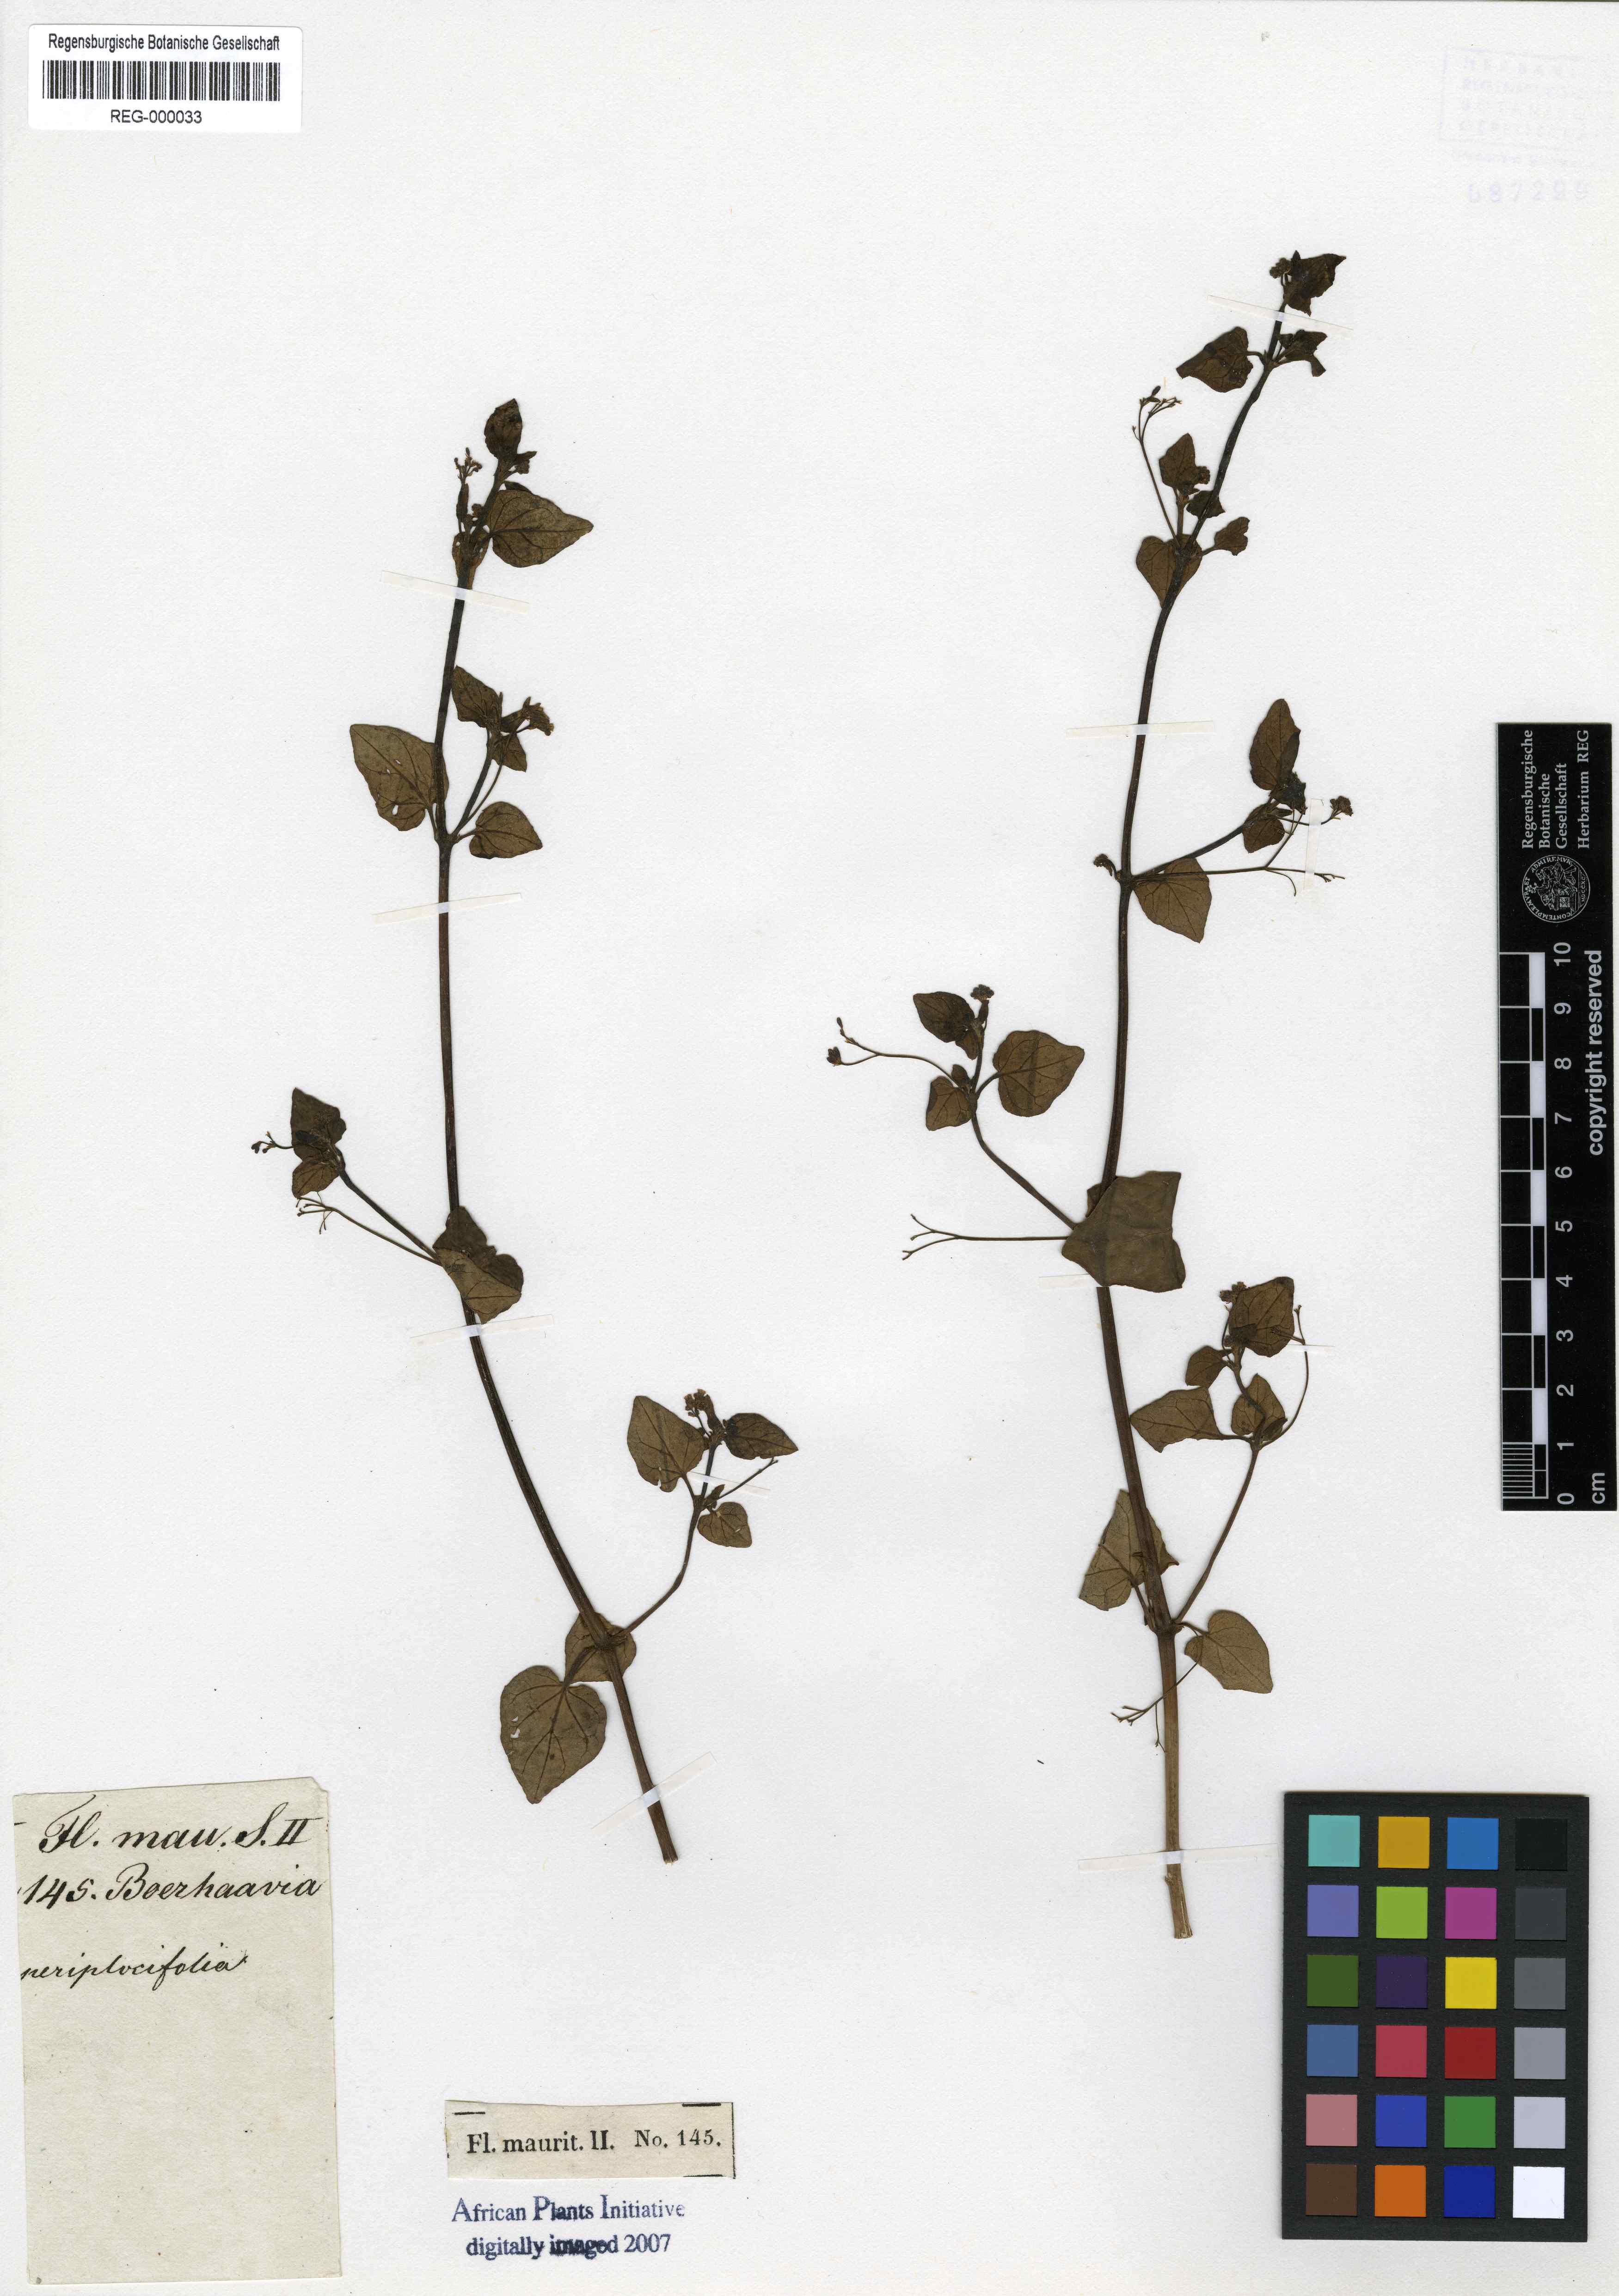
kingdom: Plantae
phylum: Tracheophyta
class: Magnoliopsida
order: Caryophyllales
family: Nyctaginaceae
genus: Boerhavia
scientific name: Boerhavia coccinea
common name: Scarlet spiderling
